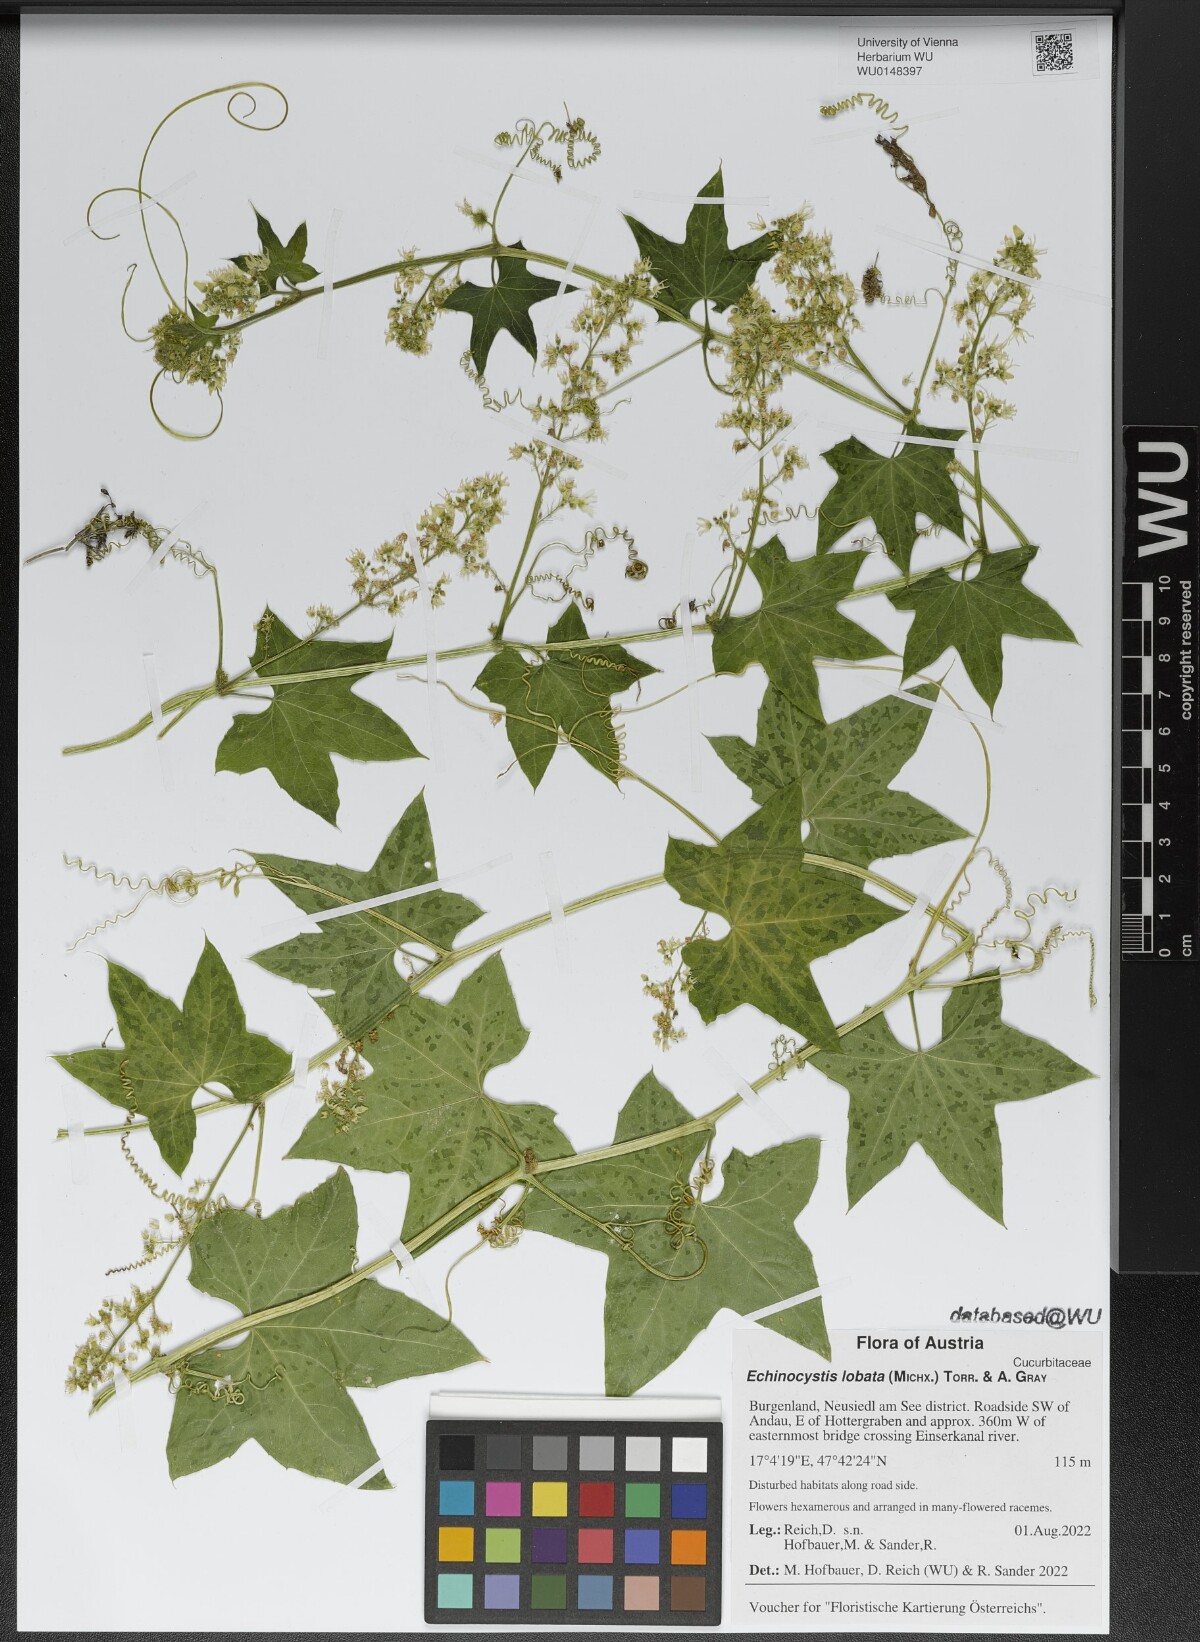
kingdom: Plantae
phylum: Tracheophyta
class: Magnoliopsida
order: Cucurbitales
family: Cucurbitaceae
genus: Echinocystis
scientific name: Echinocystis lobata
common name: Wild cucumber
